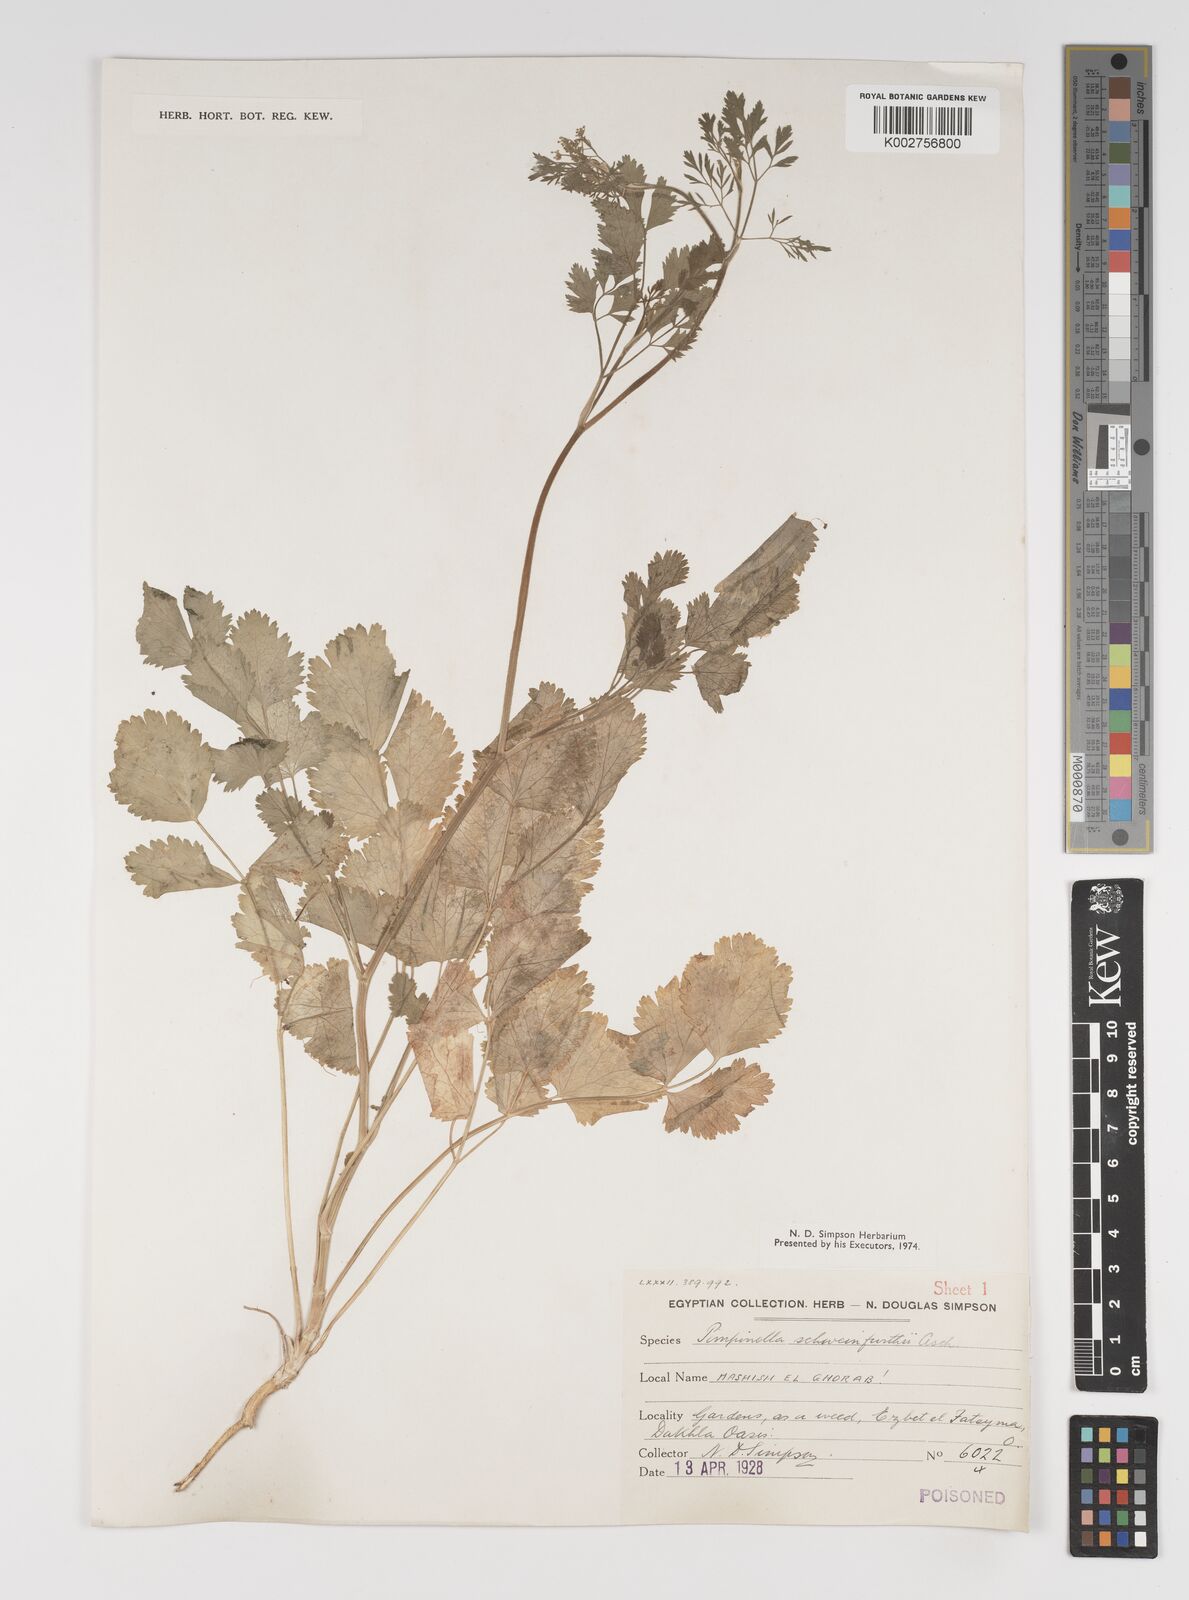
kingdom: Plantae
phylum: Tracheophyta
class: Magnoliopsida
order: Apiales
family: Apiaceae
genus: Pimpinella
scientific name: Pimpinella schweinfurthii
